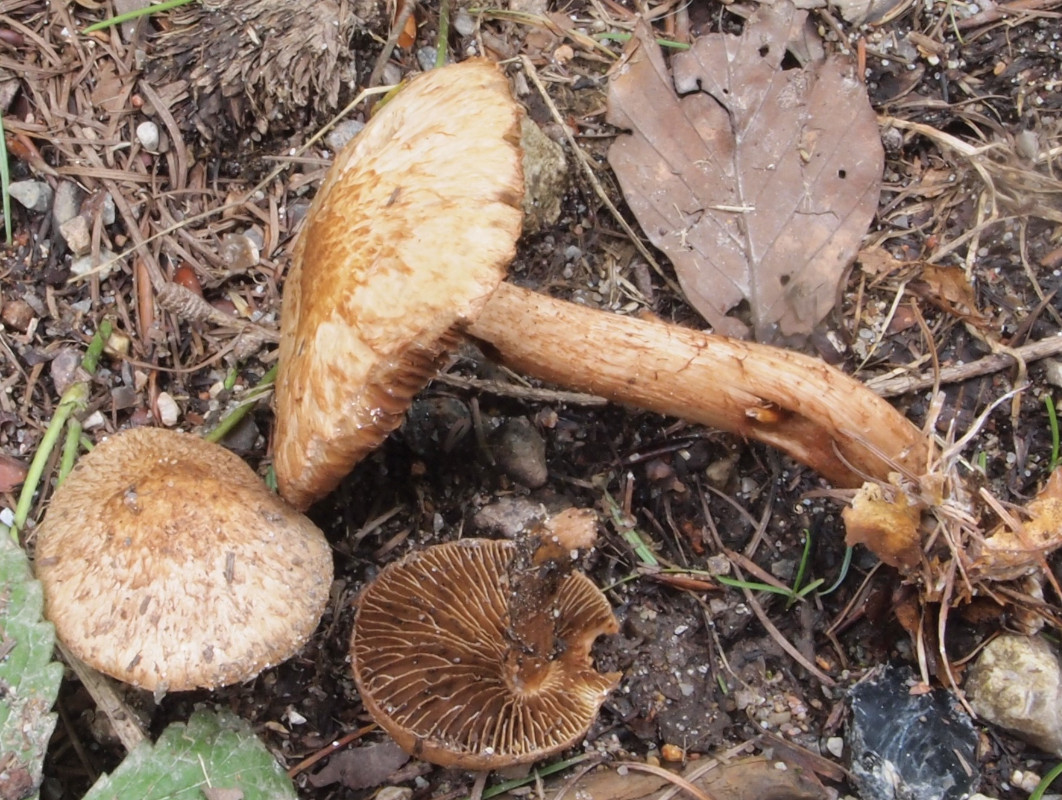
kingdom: Fungi
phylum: Basidiomycota
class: Agaricomycetes
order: Agaricales
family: Inocybaceae
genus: Inocybe
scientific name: Inocybe erinaceomorpha
